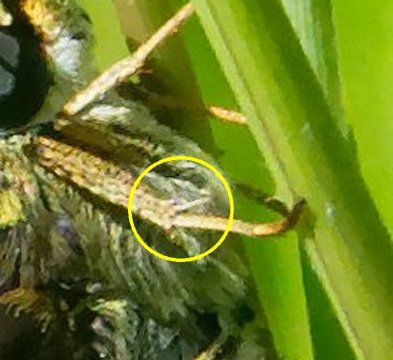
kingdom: Animalia
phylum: Arthropoda
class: Insecta
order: Lepidoptera
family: Hesperiidae
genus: Euphyes
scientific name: Euphyes
